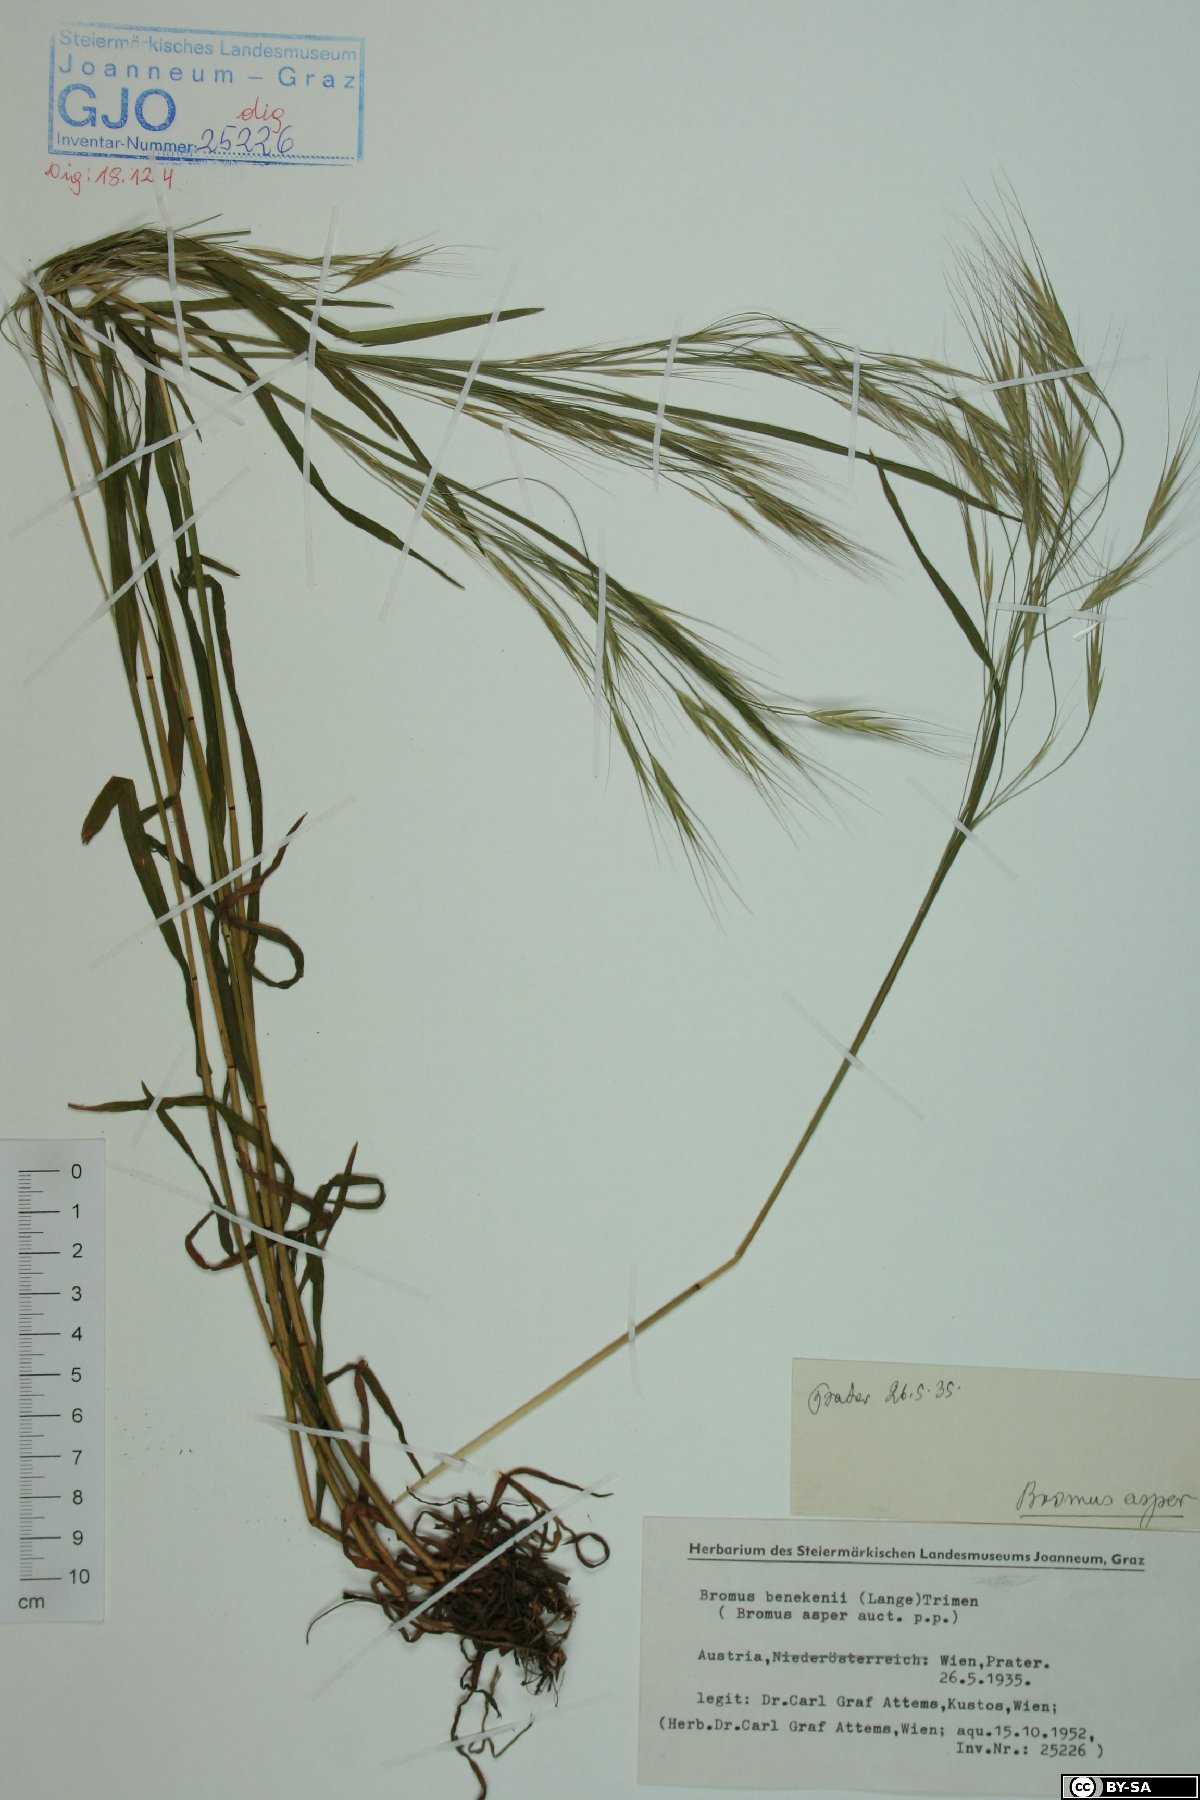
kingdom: Plantae
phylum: Tracheophyta
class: Liliopsida
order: Poales
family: Poaceae
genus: Bromus
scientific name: Bromus ramosus
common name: Hairy brome
